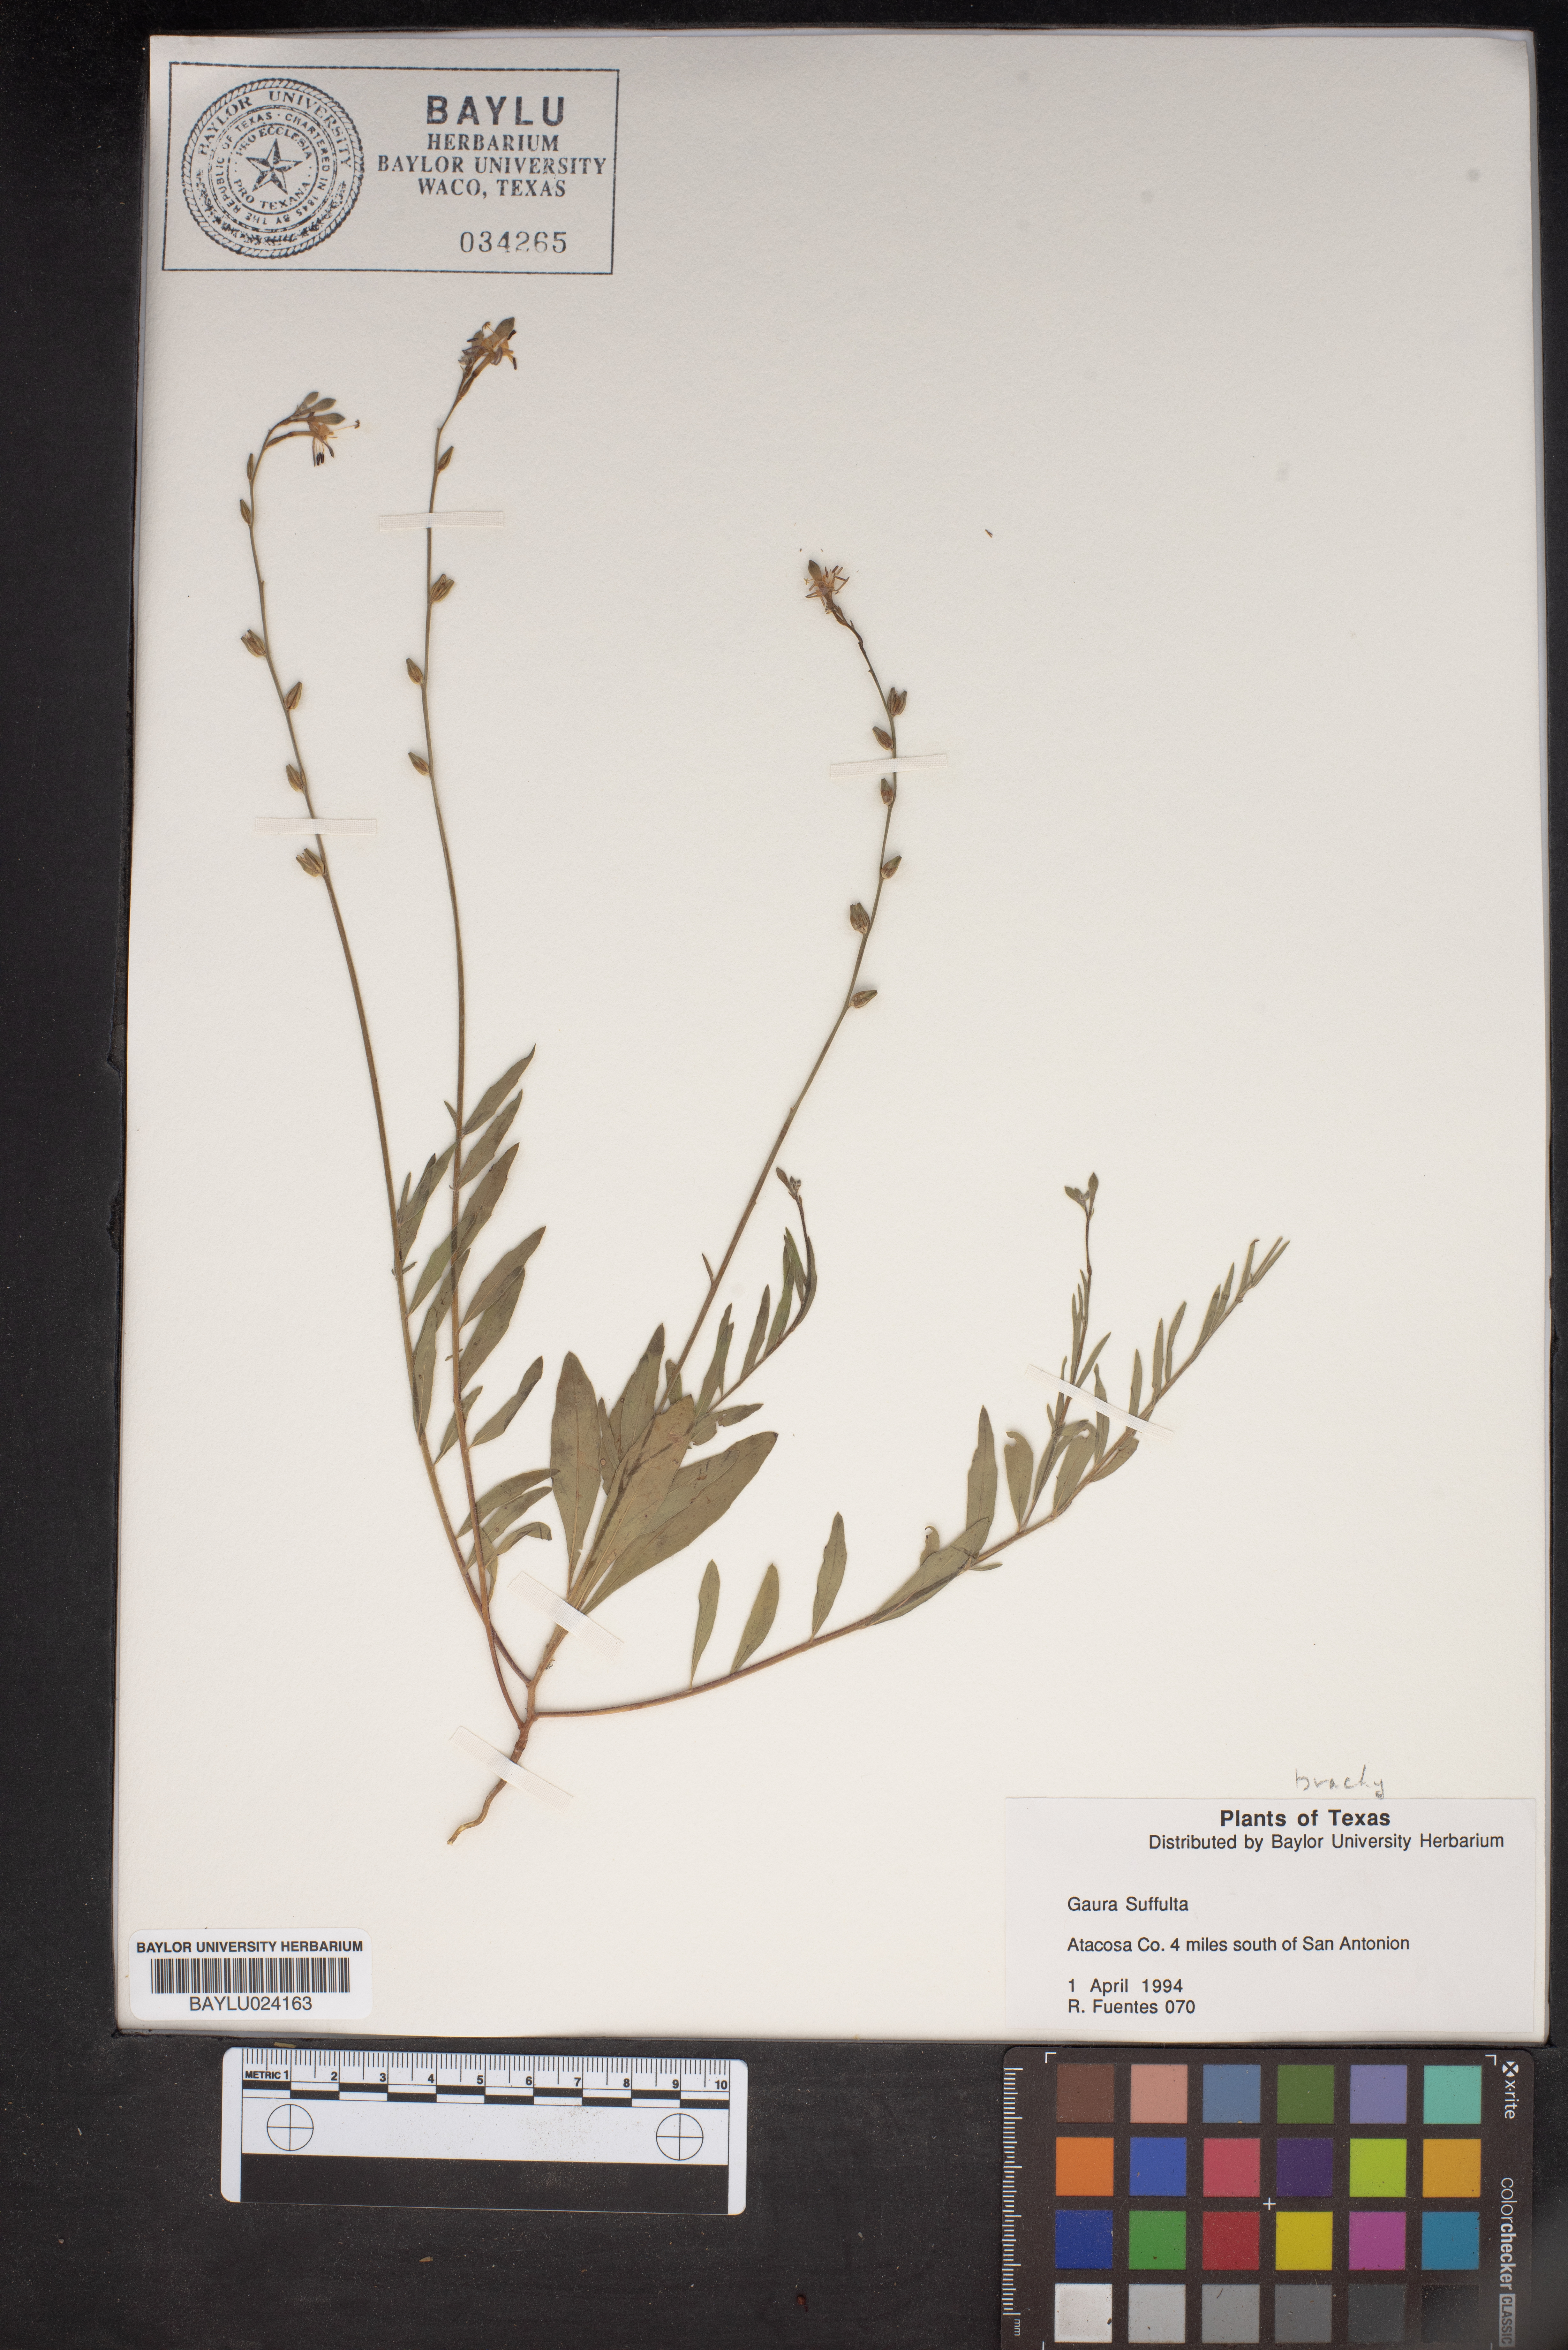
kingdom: Plantae
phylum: Tracheophyta
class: Magnoliopsida
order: Myrtales
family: Onagraceae
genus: Oenothera
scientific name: Oenothera Gaura suffulta
